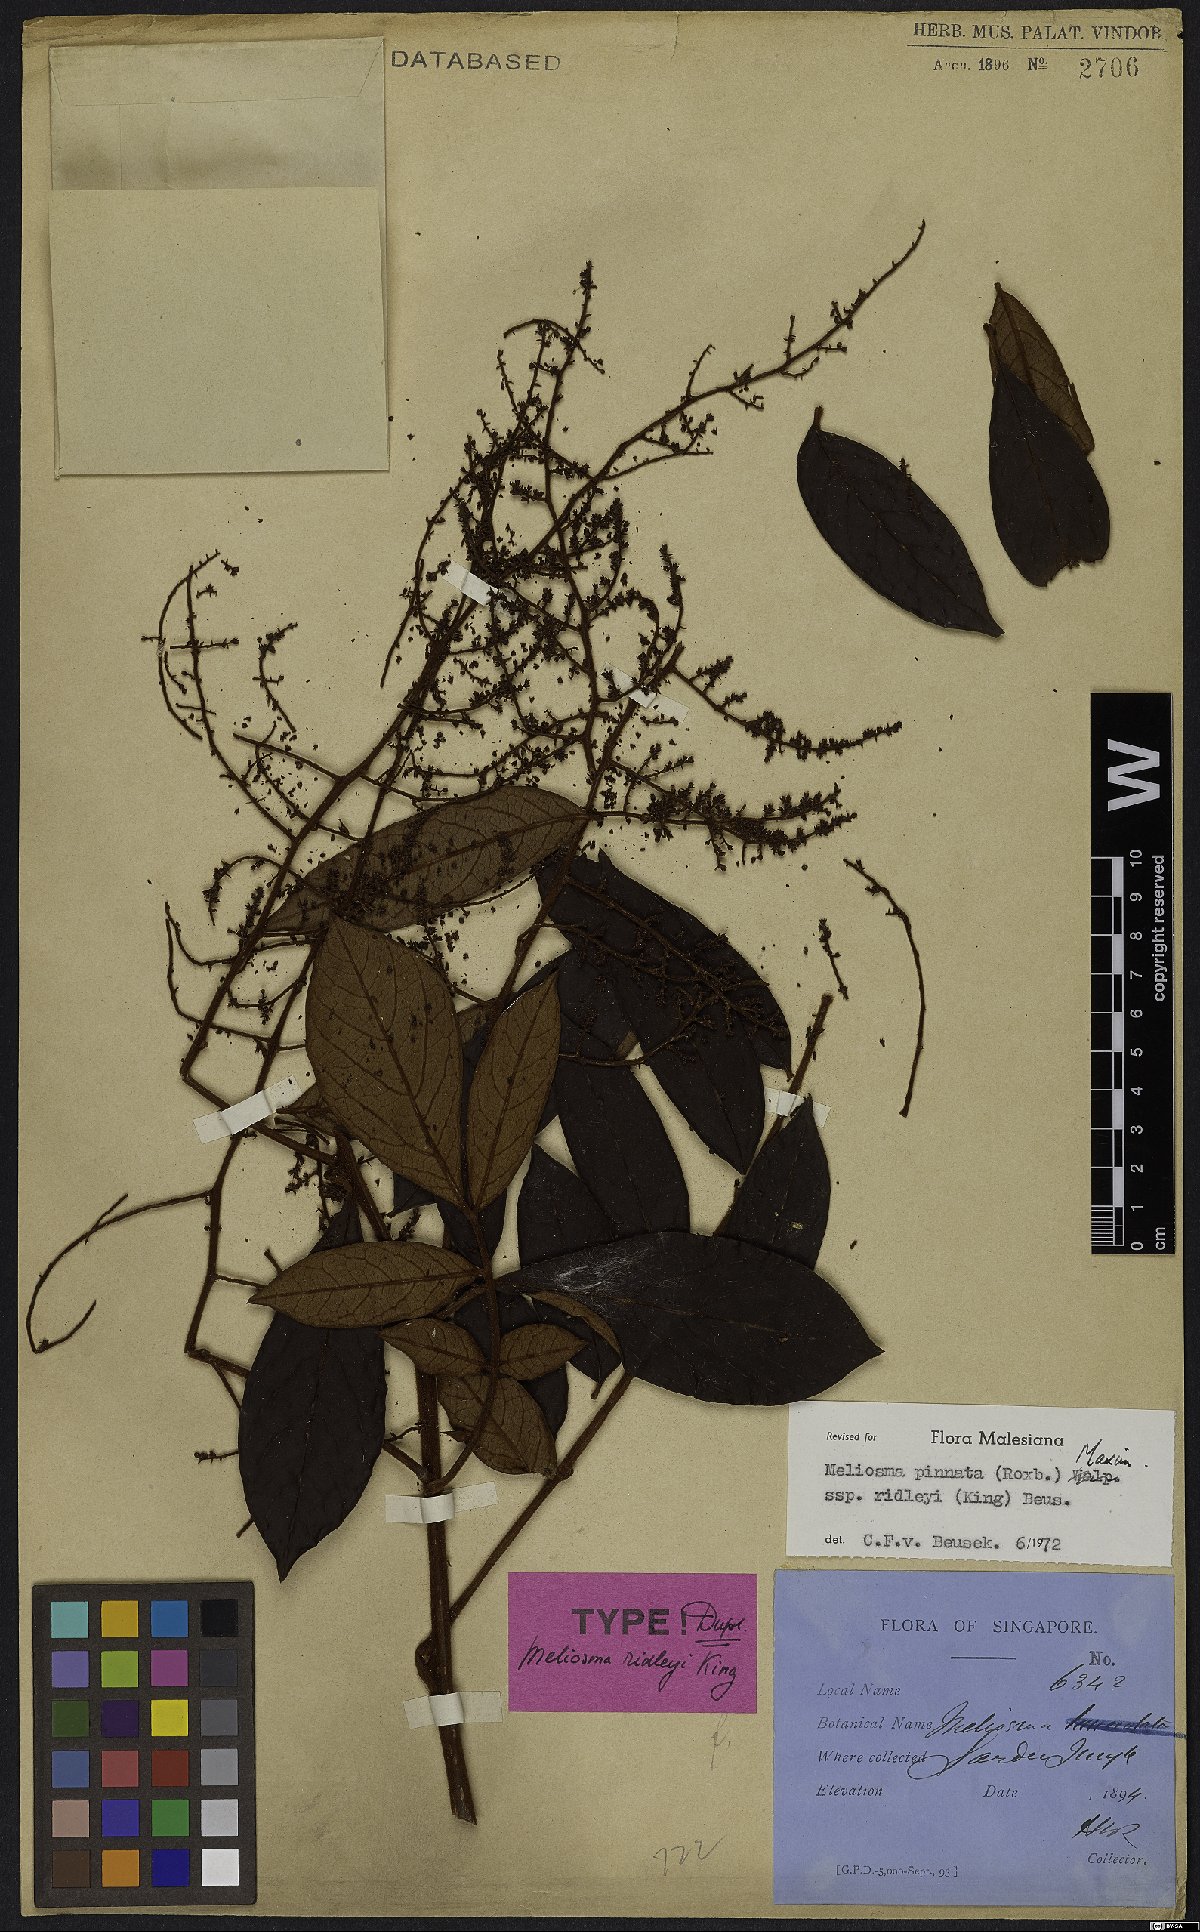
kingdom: Plantae
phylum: Tracheophyta
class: Magnoliopsida
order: Proteales
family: Sabiaceae
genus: Meliosma
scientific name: Meliosma pinnata
